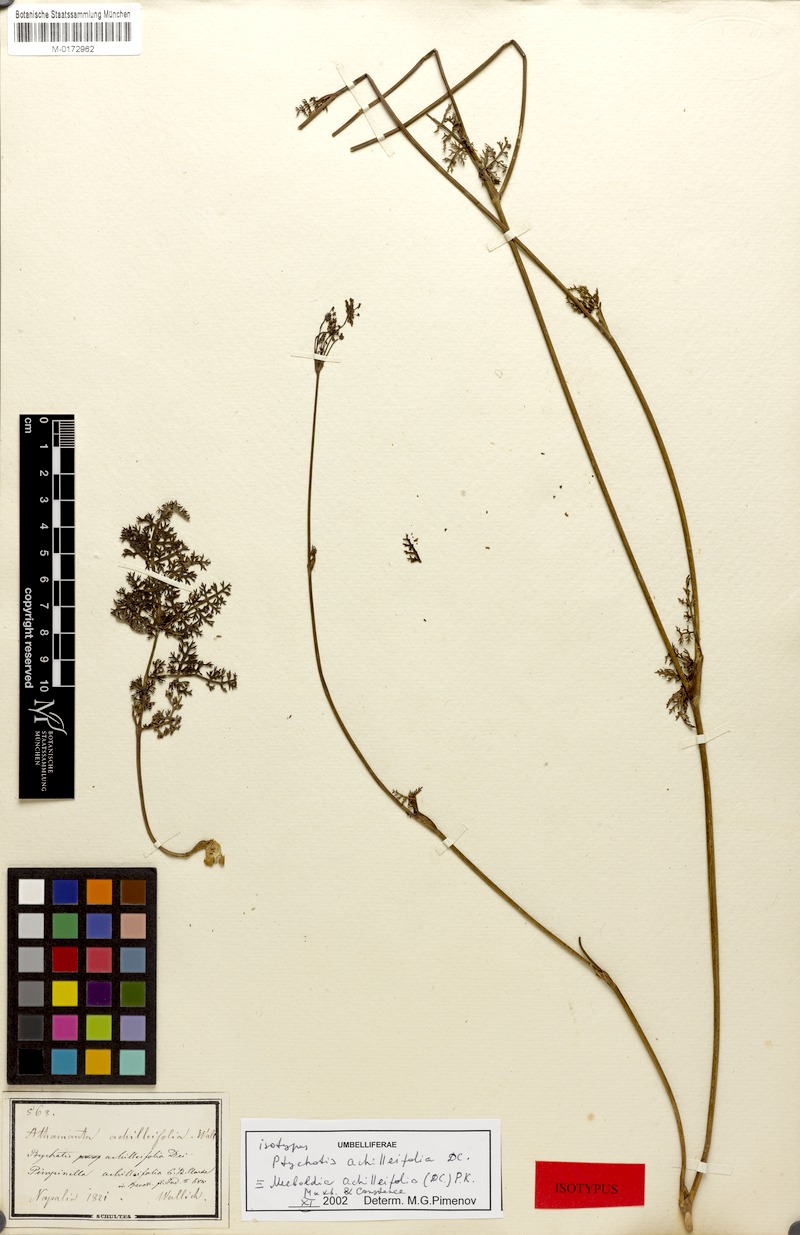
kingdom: Plantae
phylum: Tracheophyta
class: Magnoliopsida
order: Apiales
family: Apiaceae
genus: Meeboldia
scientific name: Meeboldia achilleifolia
